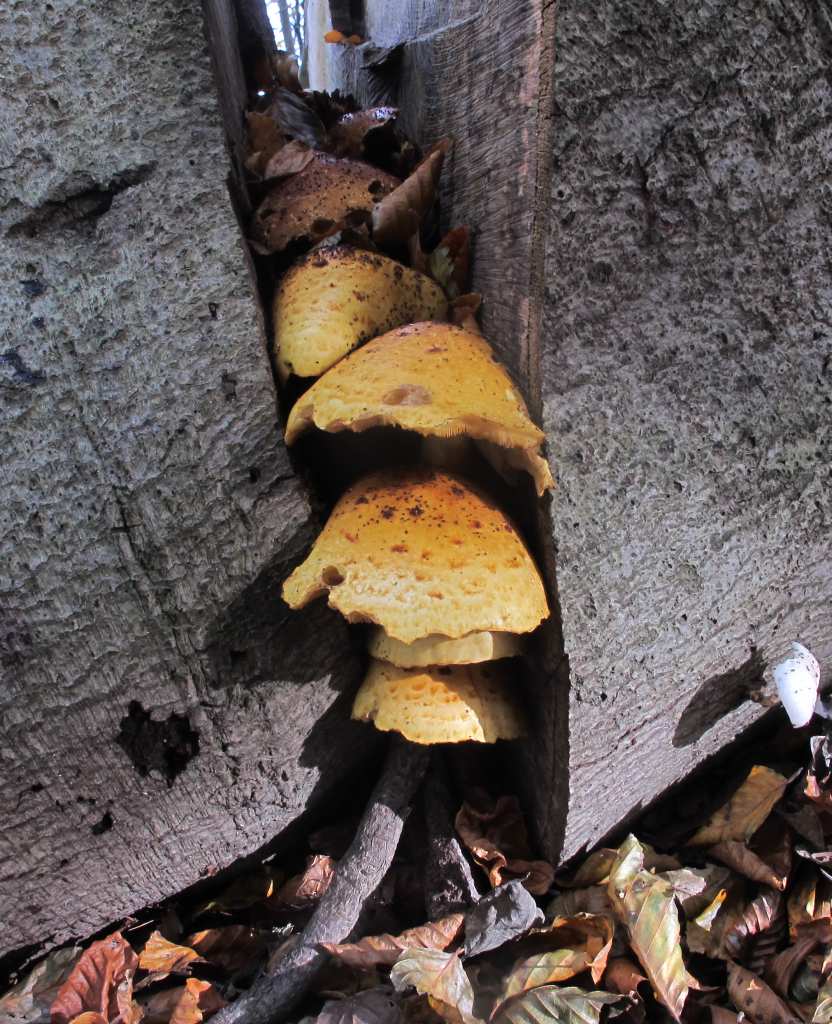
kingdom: Fungi
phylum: Basidiomycota
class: Agaricomycetes
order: Agaricales
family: Strophariaceae
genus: Pholiota
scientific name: Pholiota adiposa
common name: højtsiddende skælhat
